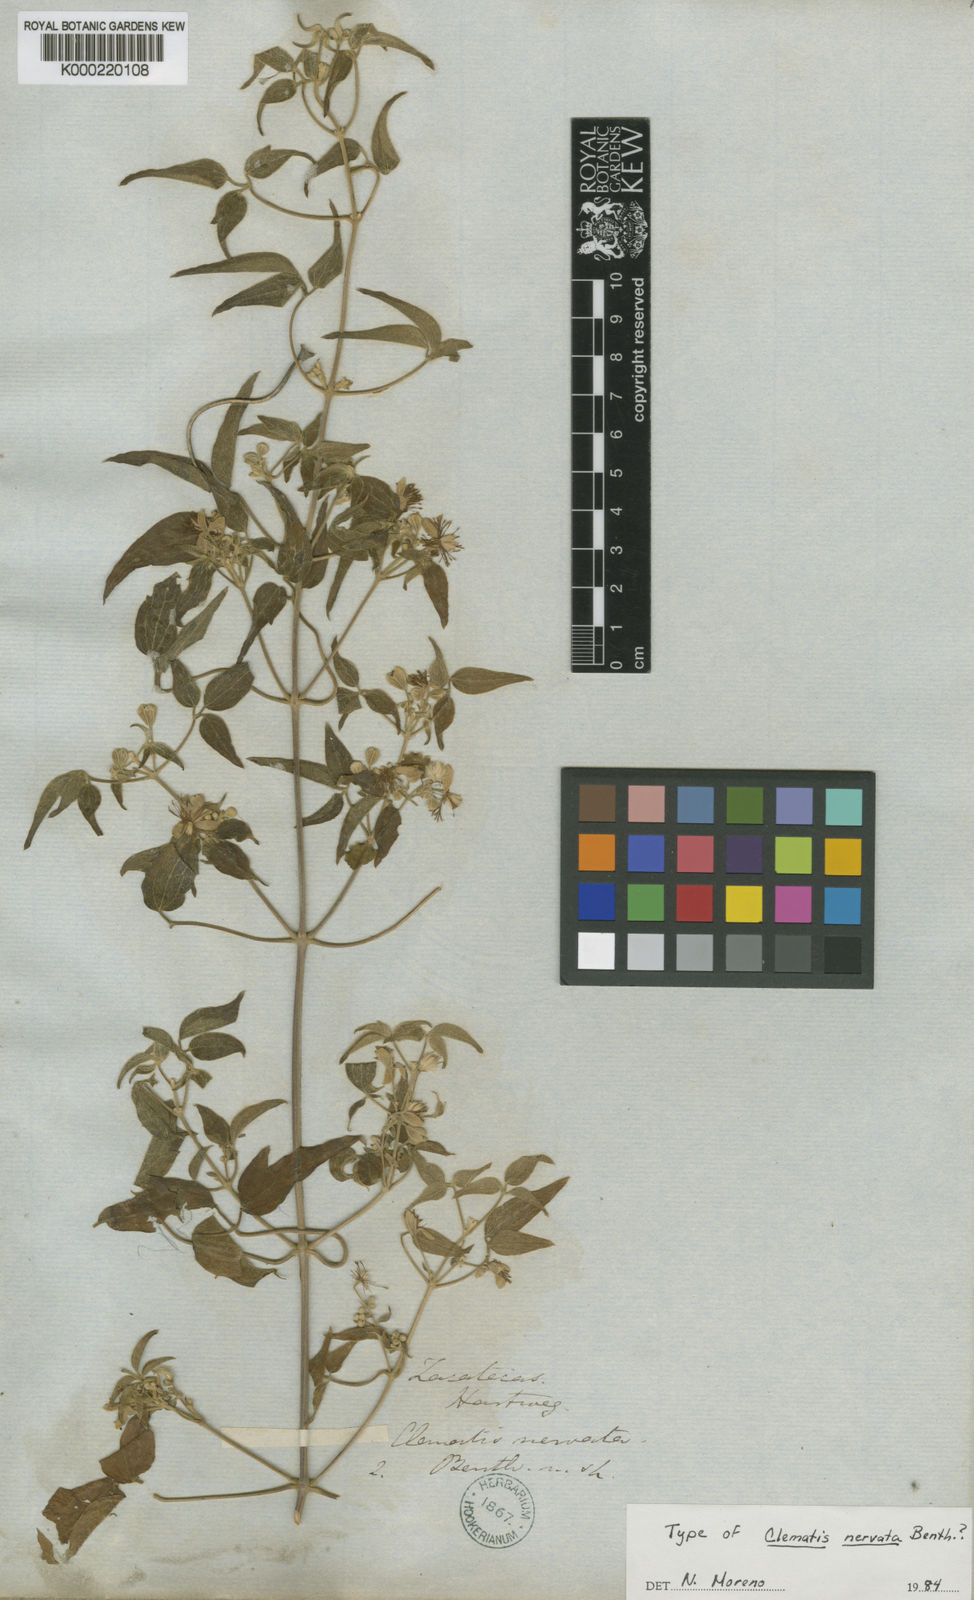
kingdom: Plantae
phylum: Tracheophyta
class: Magnoliopsida
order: Ranunculales
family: Ranunculaceae
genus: Clematis
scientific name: Clematis drummondii
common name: Texas virgin's bower
